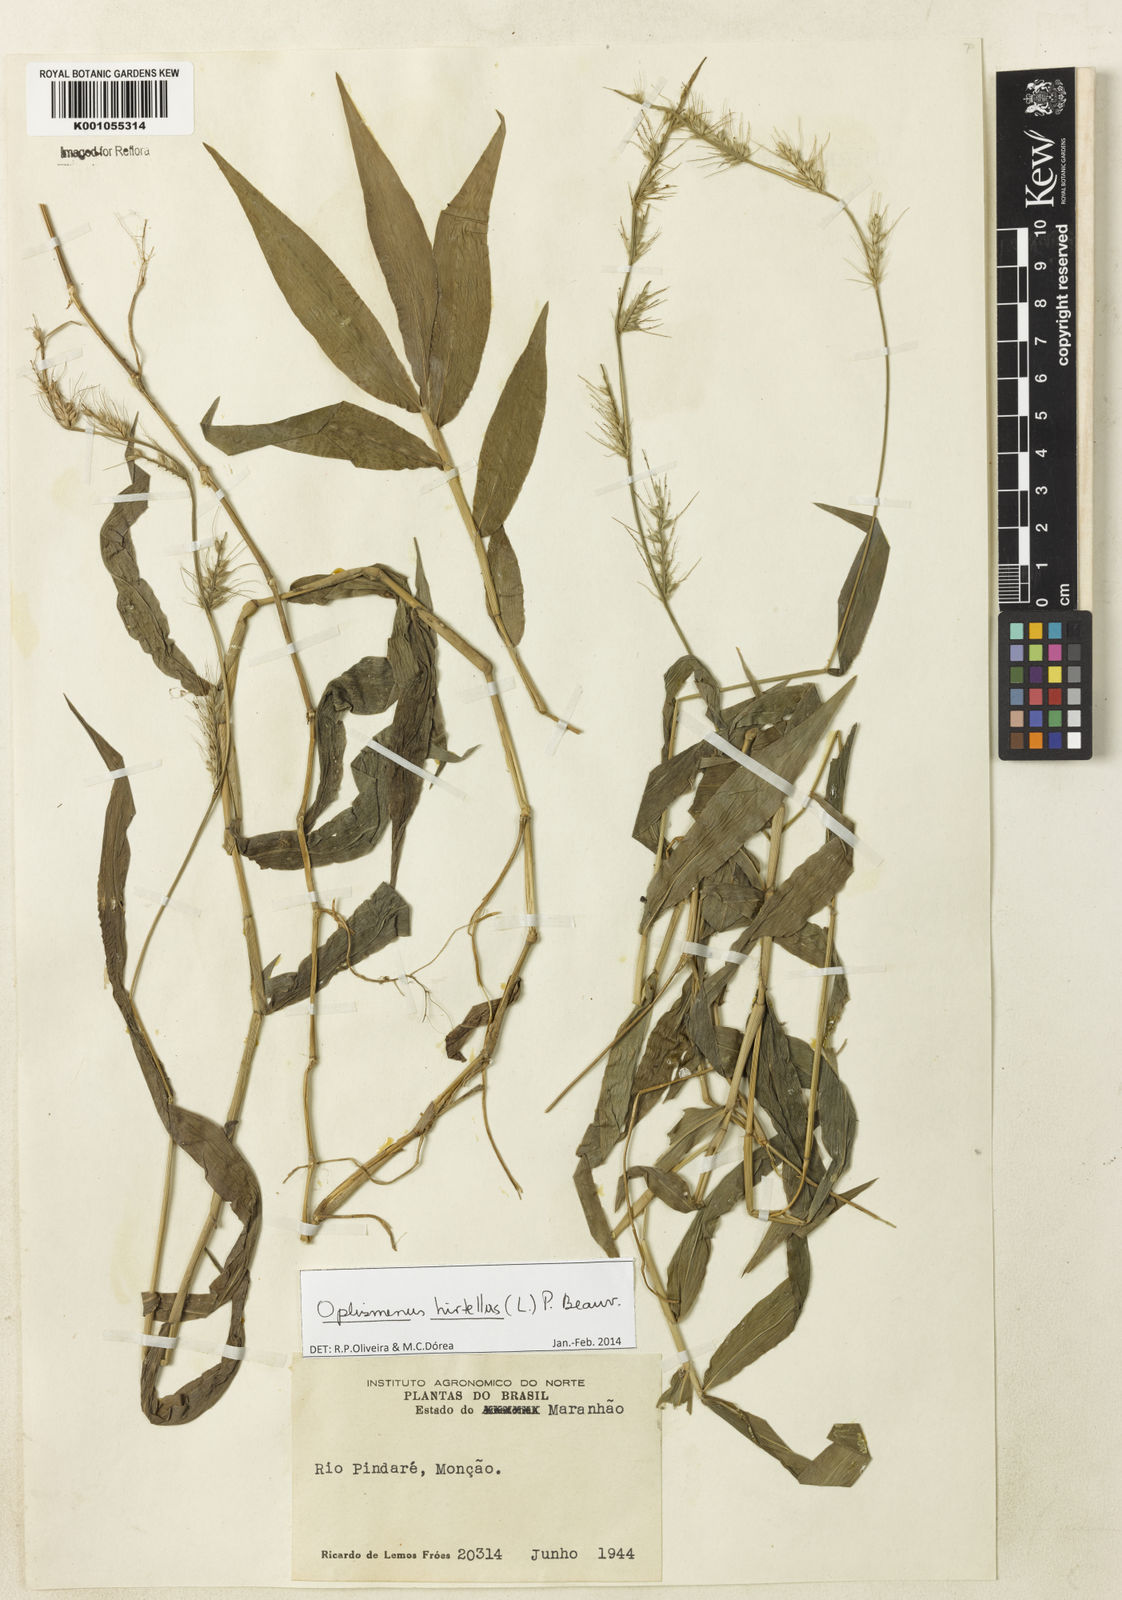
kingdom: Plantae
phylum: Tracheophyta
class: Liliopsida
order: Poales
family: Poaceae
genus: Oplismenus
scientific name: Oplismenus hirtellus
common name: Basketgrass
